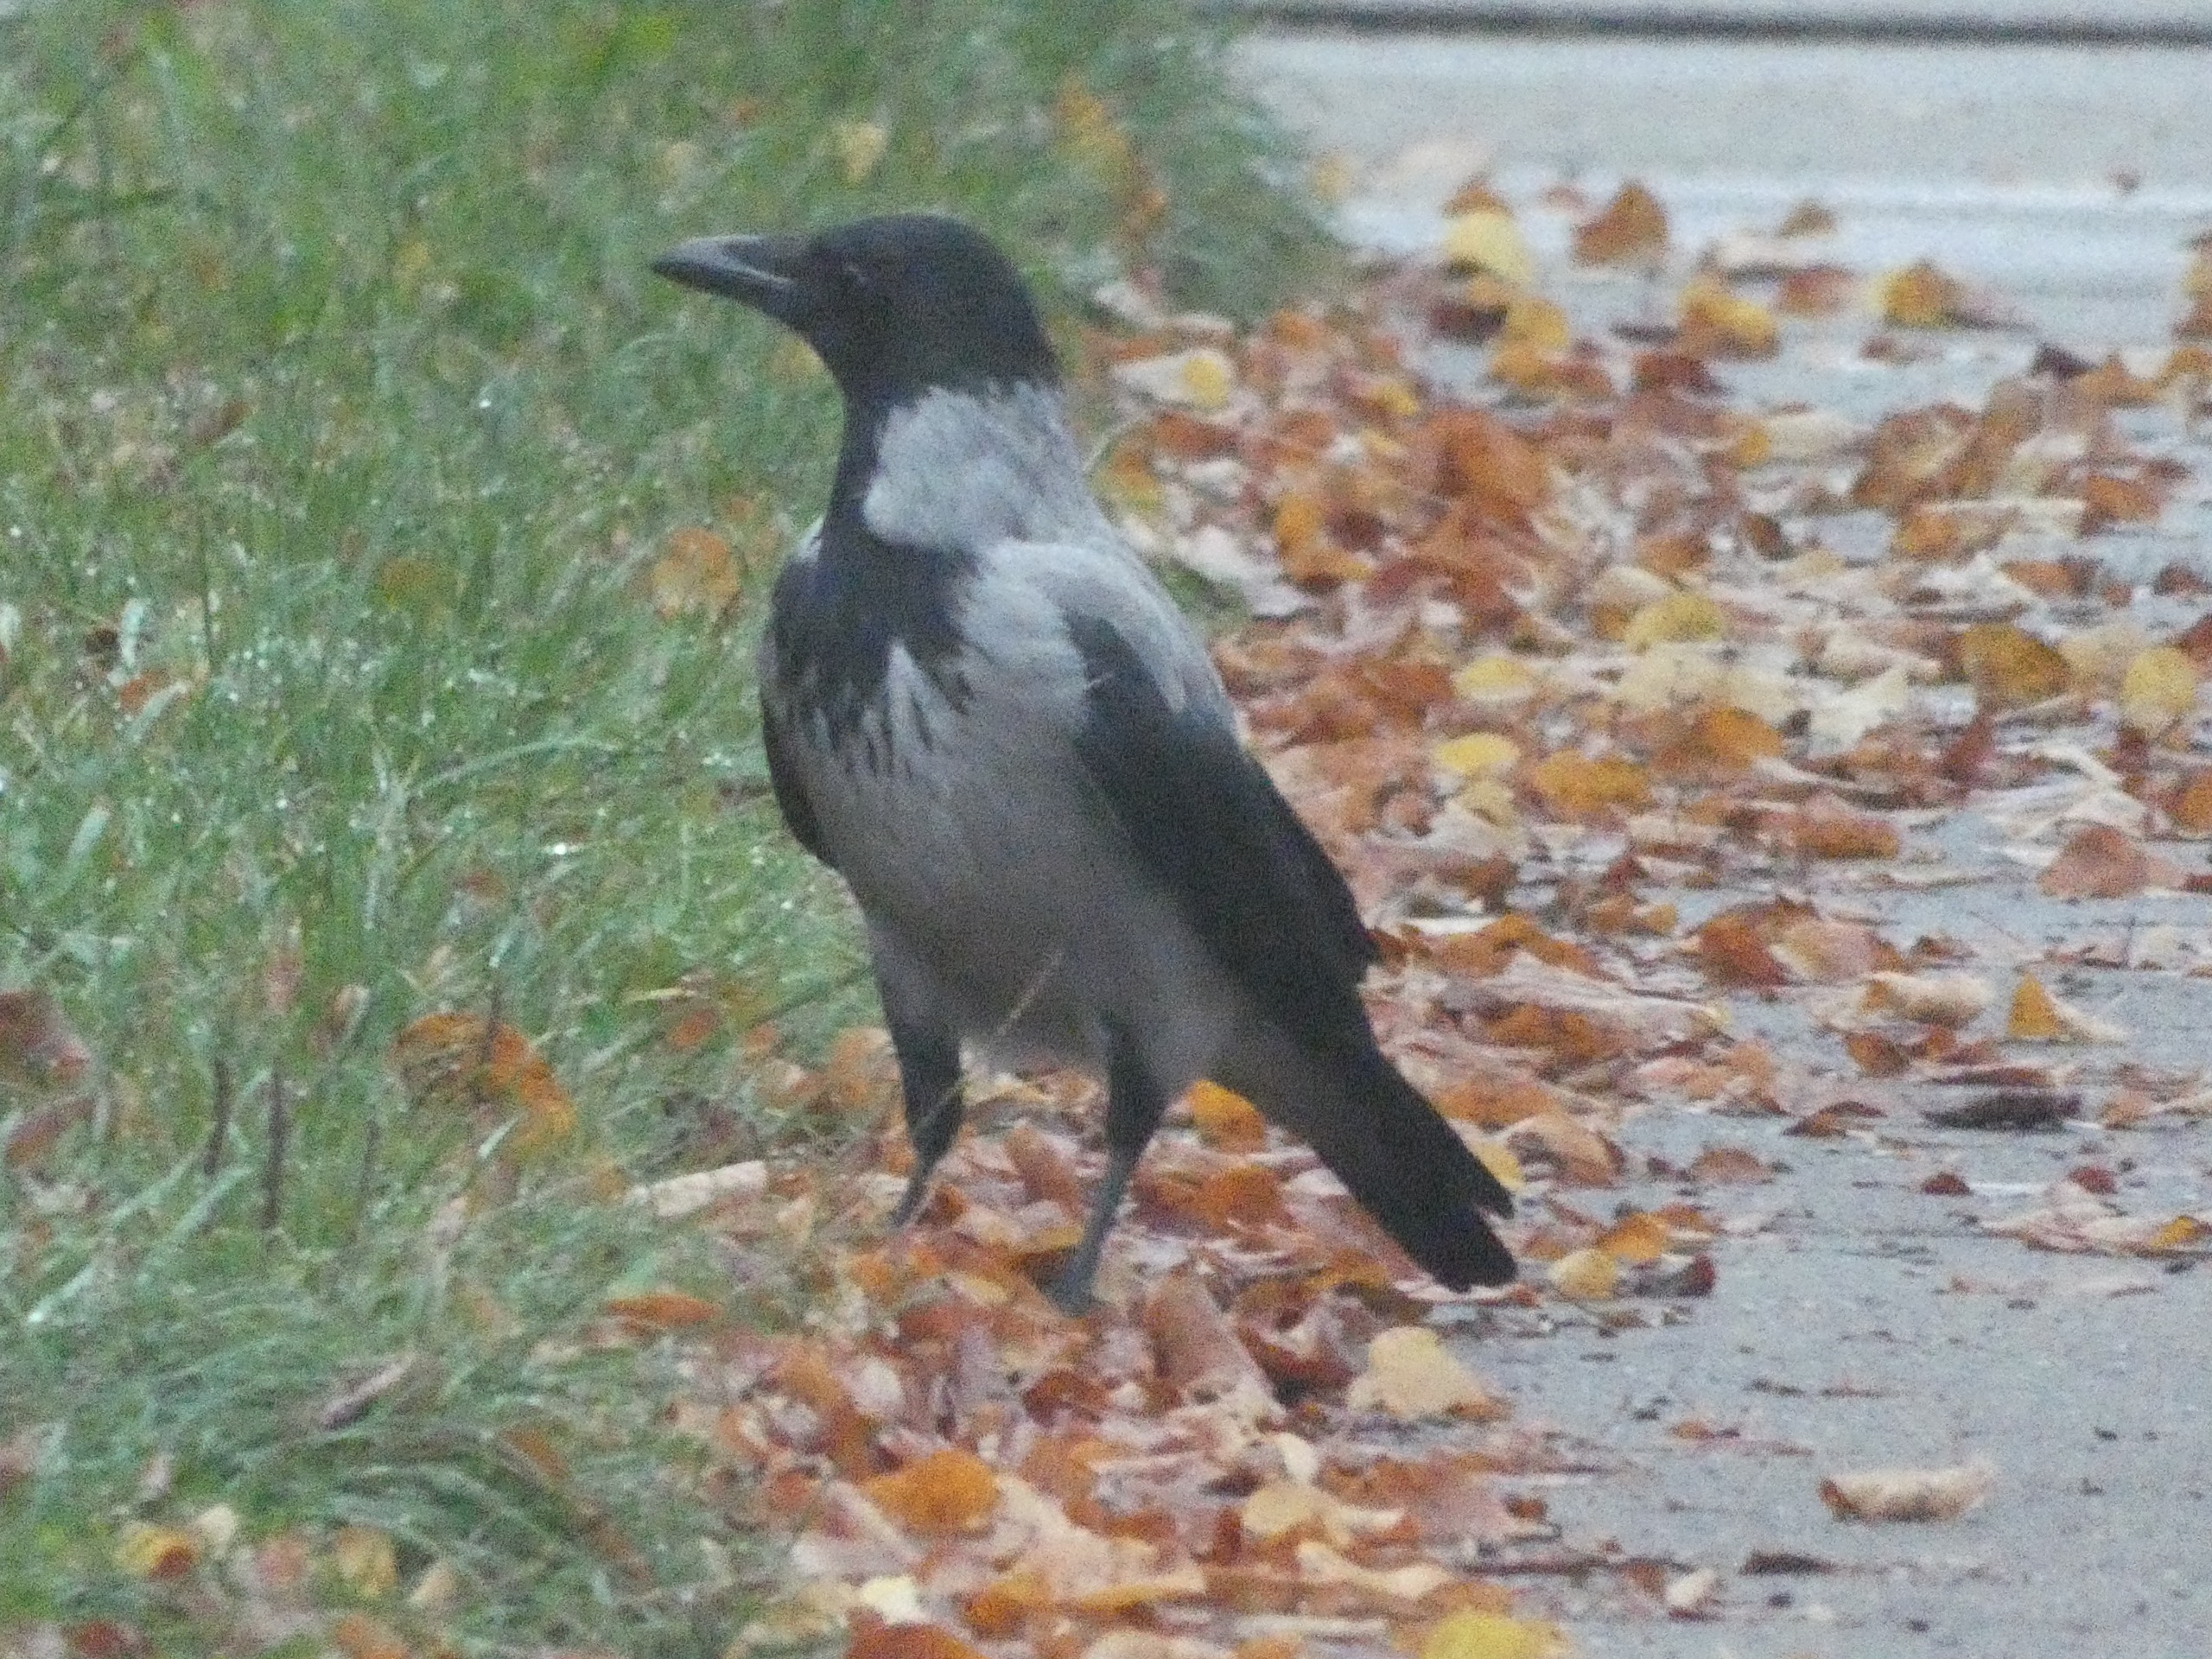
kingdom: Animalia
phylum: Chordata
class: Aves
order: Passeriformes
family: Corvidae
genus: Corvus
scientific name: Corvus cornix
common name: Gråkrage
